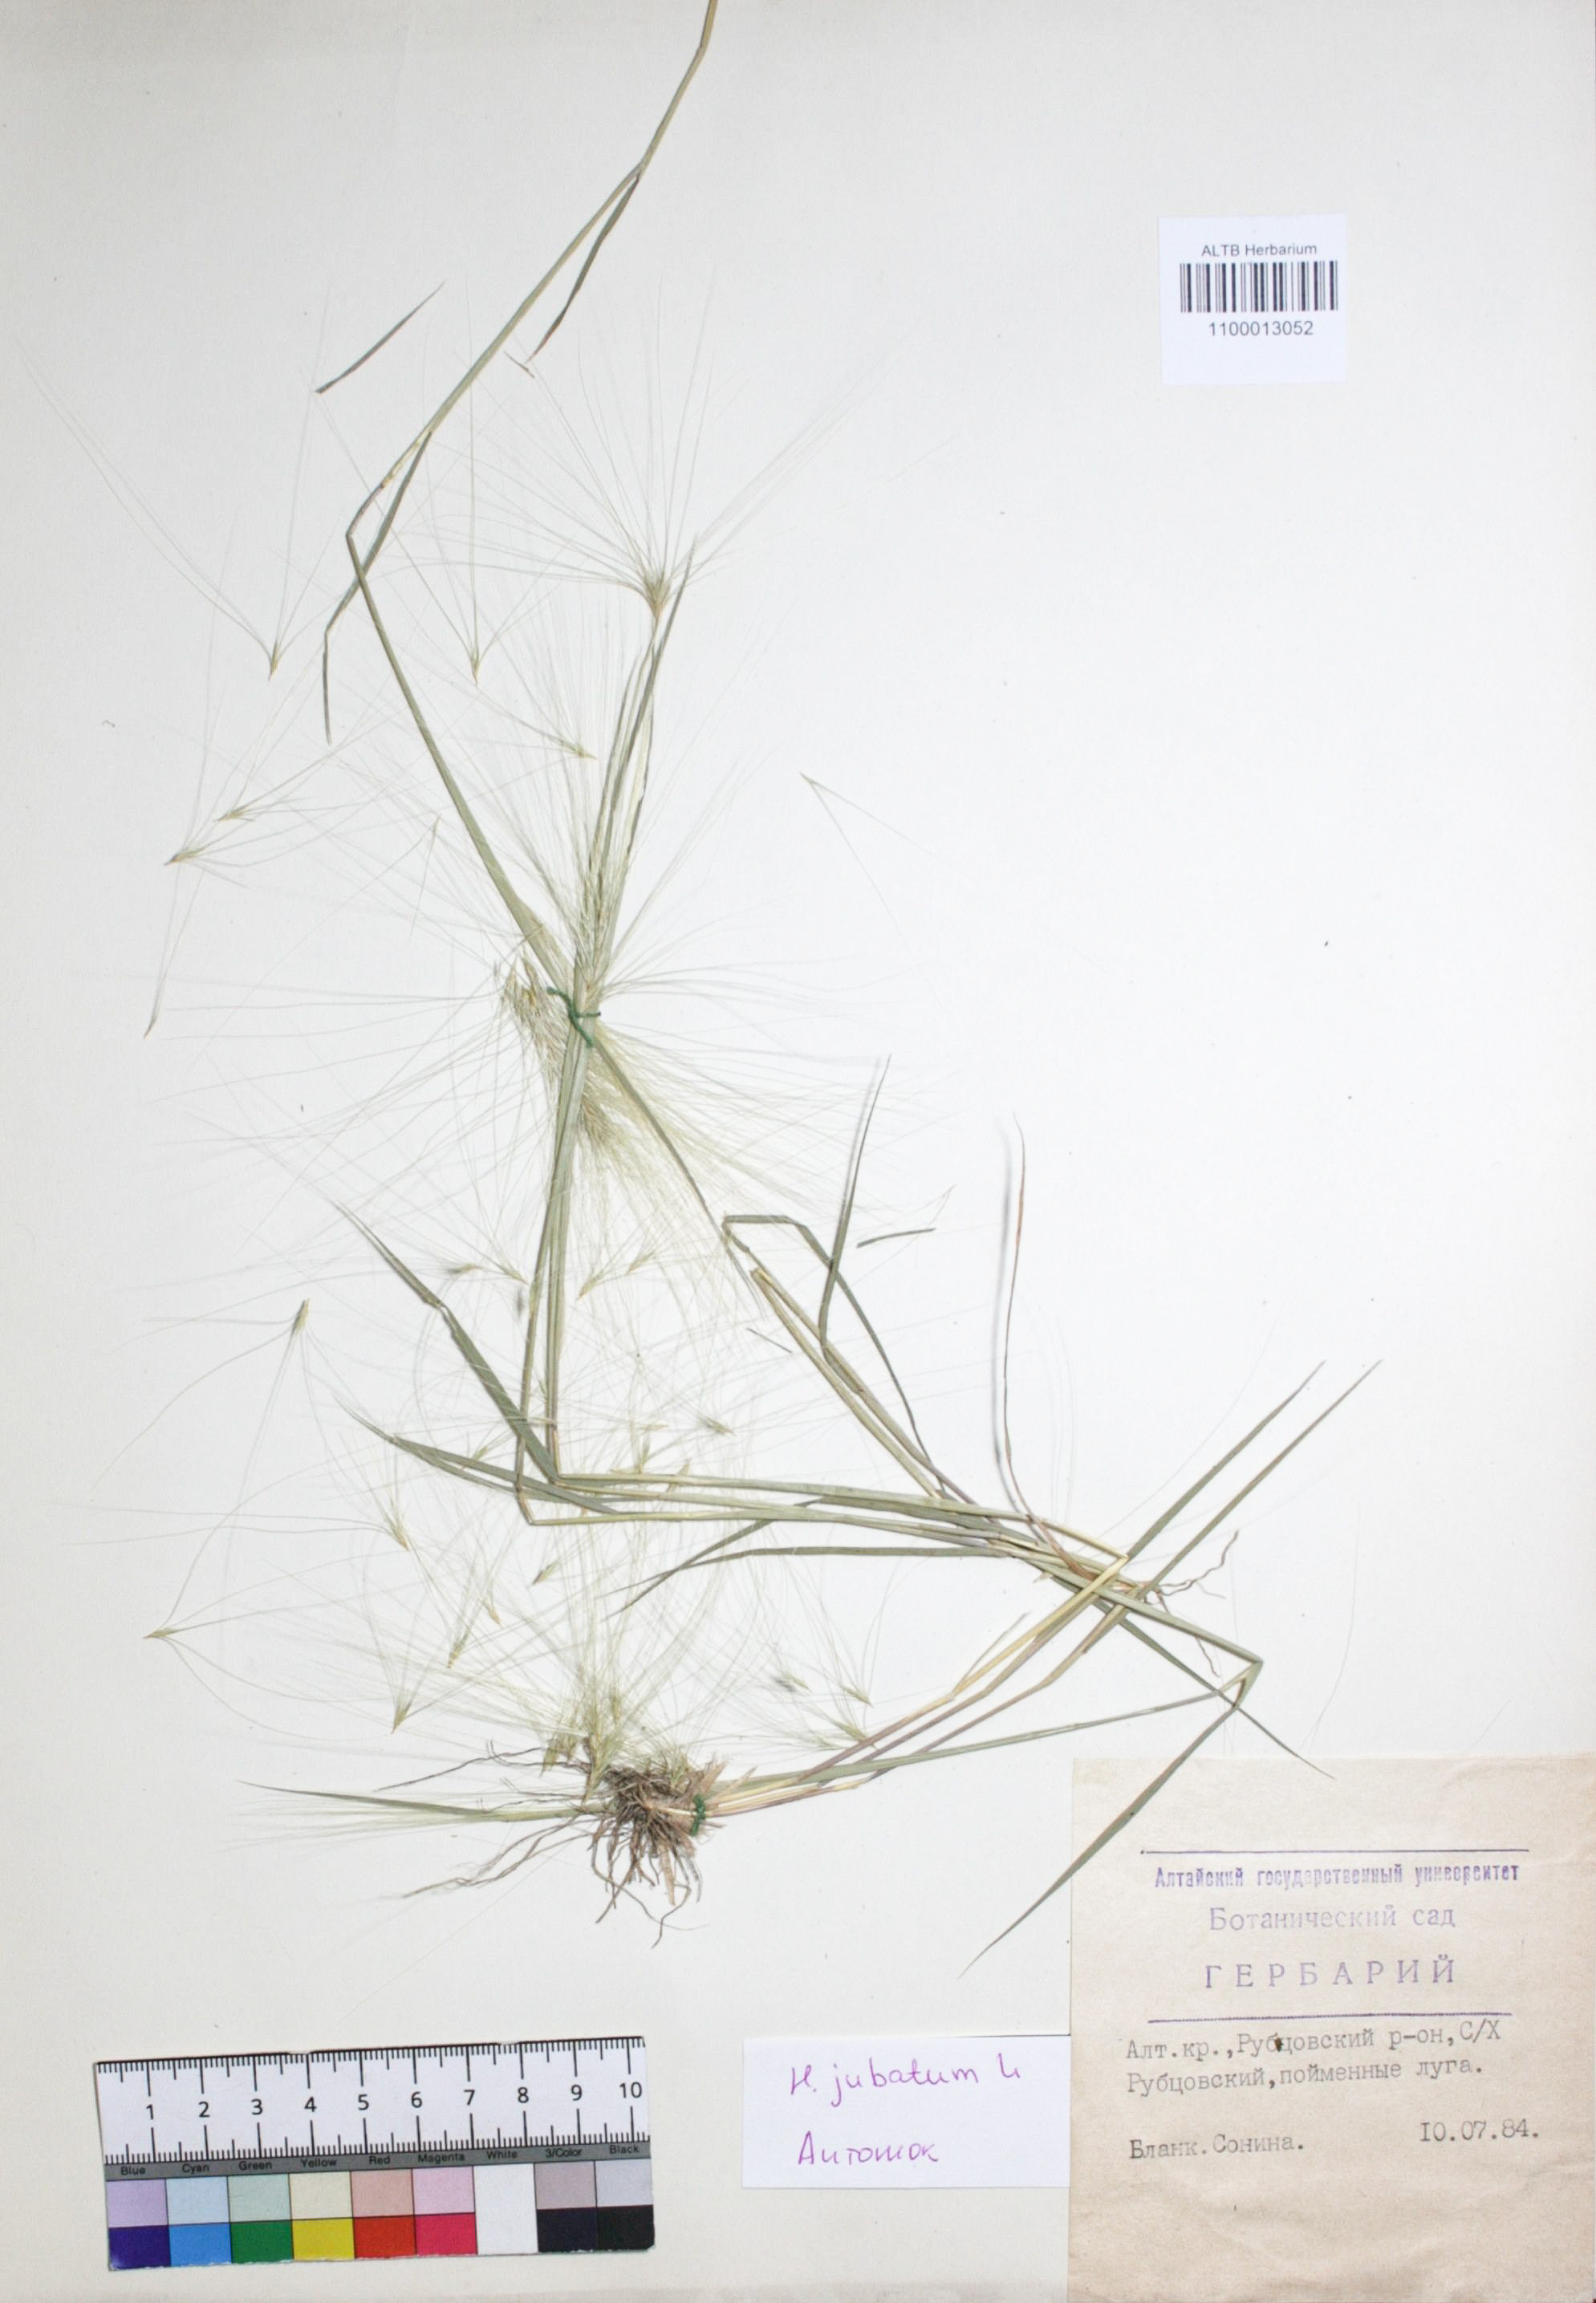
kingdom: Plantae
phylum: Tracheophyta
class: Liliopsida
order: Poales
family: Poaceae
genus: Hordeum
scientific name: Hordeum jubatum
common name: Foxtail barley
